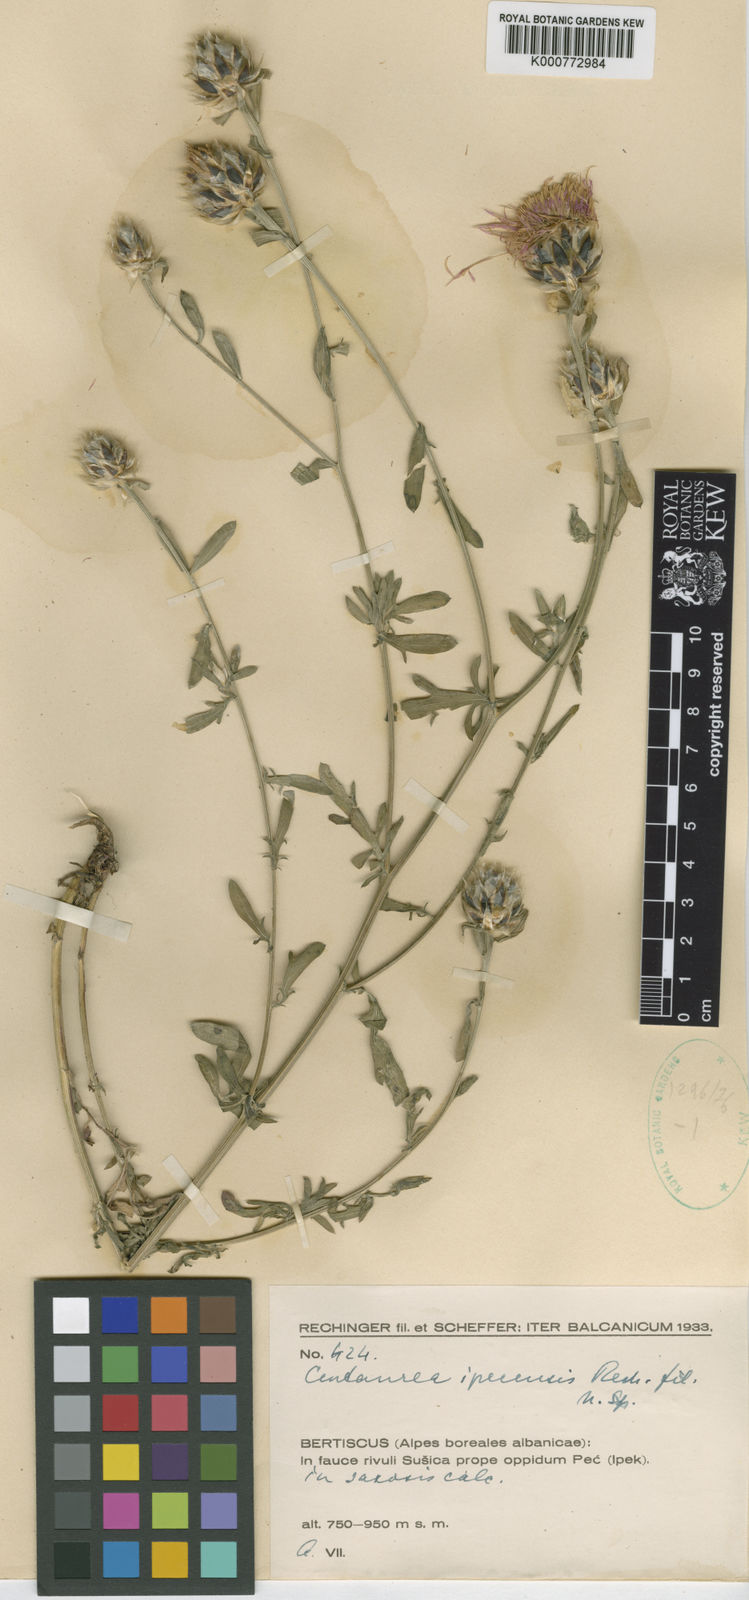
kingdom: Plantae
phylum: Tracheophyta
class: Magnoliopsida
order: Asterales
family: Asteraceae
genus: Centaurea
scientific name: Centaurea alba
